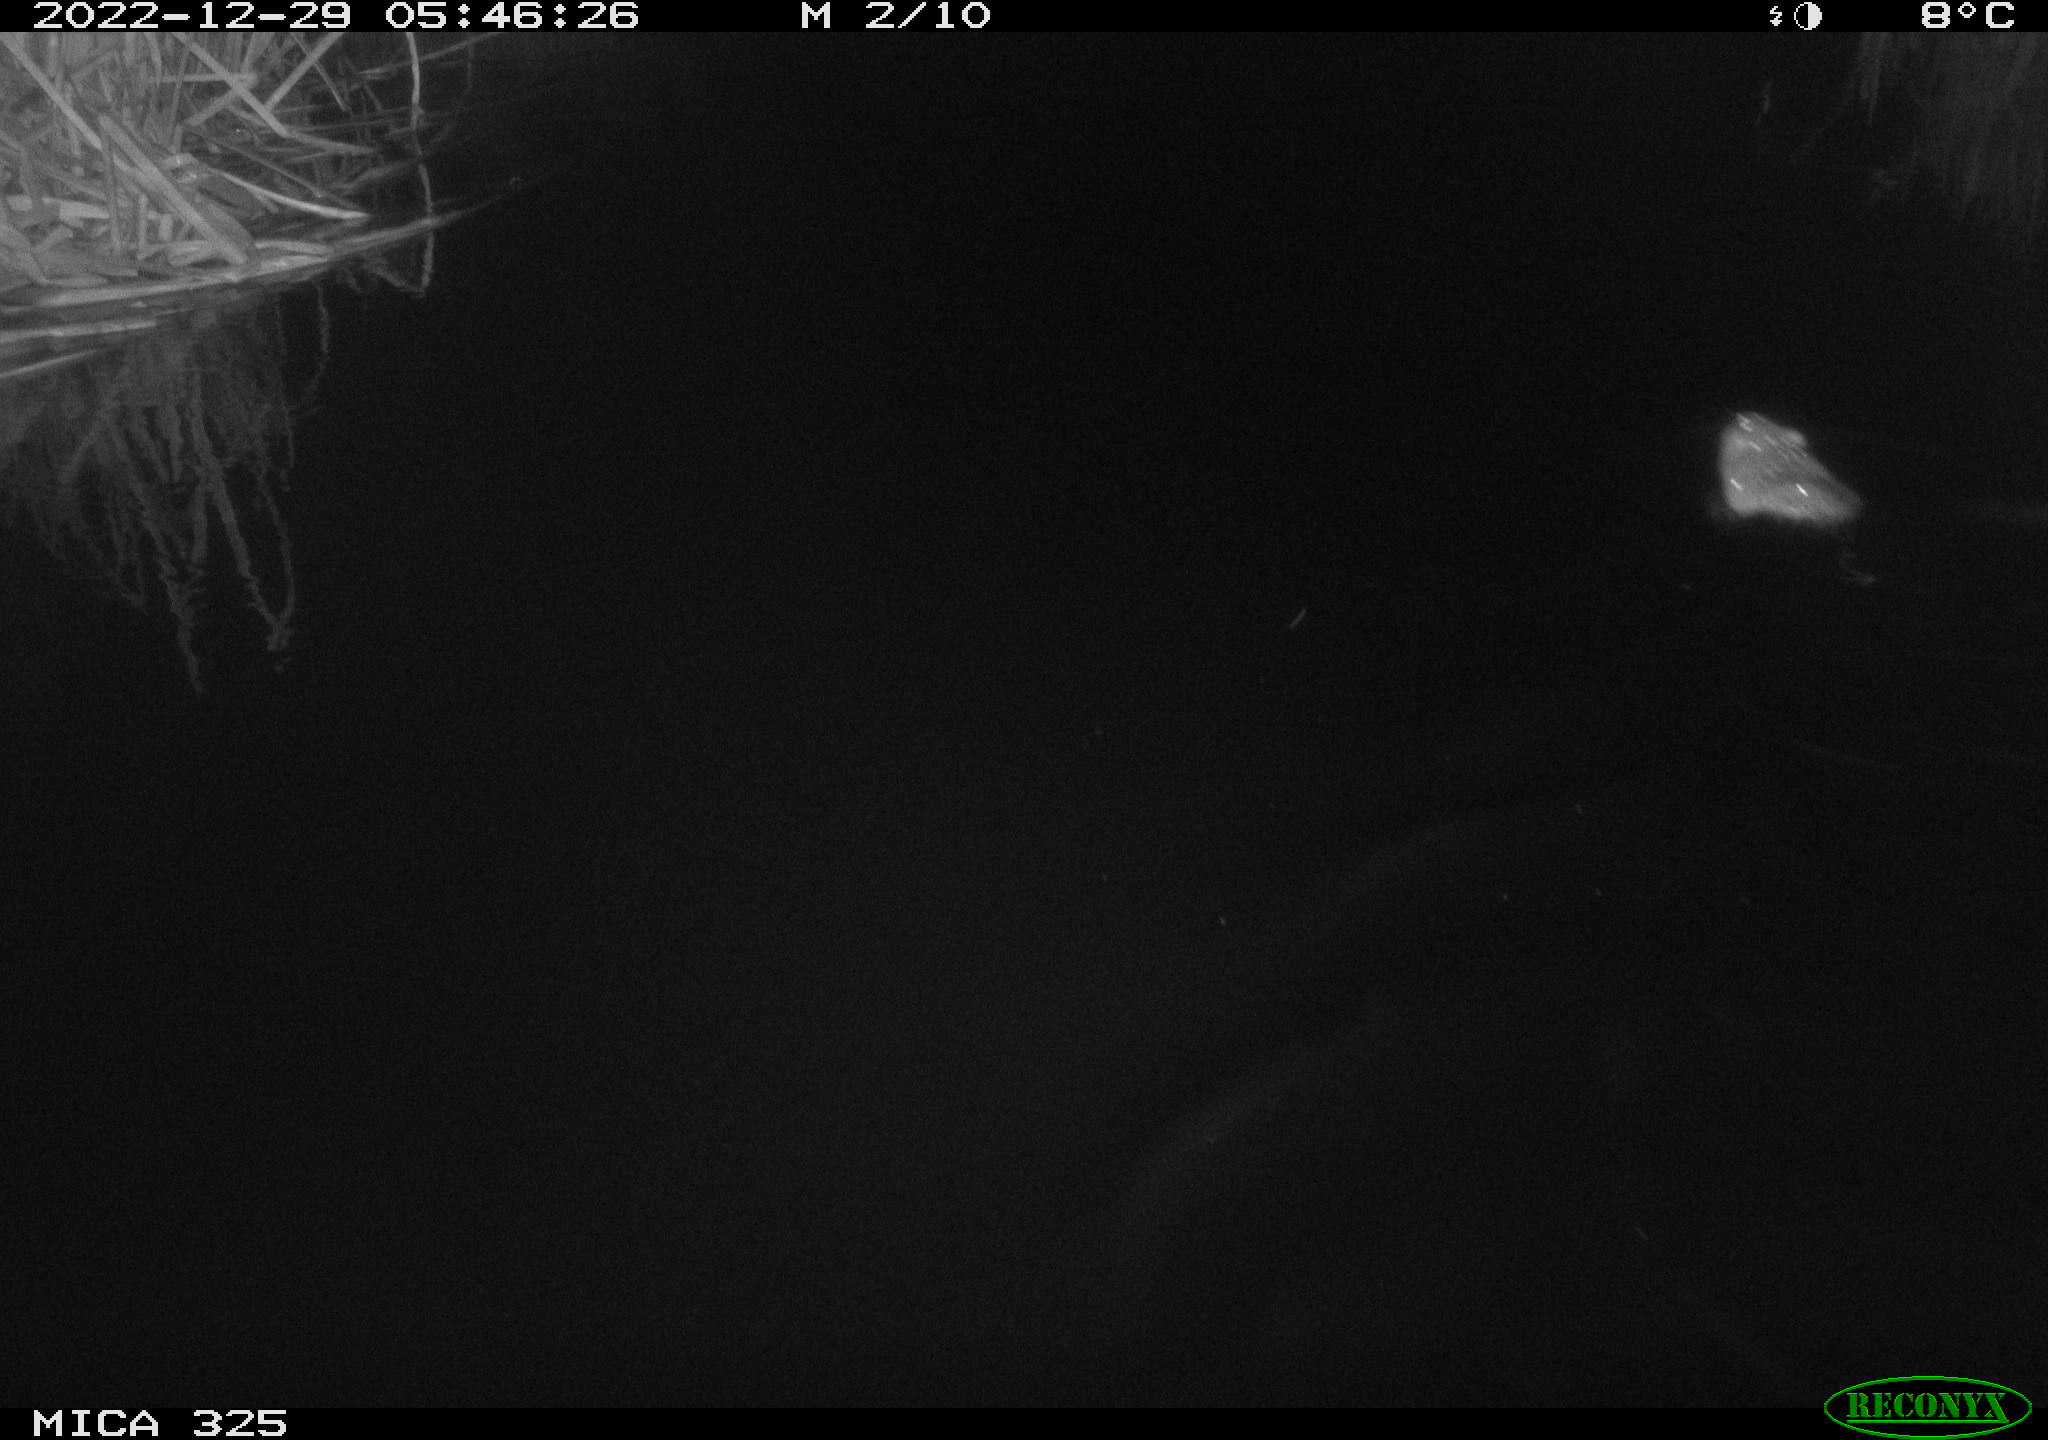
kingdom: Animalia
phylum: Chordata
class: Mammalia
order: Rodentia
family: Cricetidae
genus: Ondatra
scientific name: Ondatra zibethicus
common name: Muskrat
